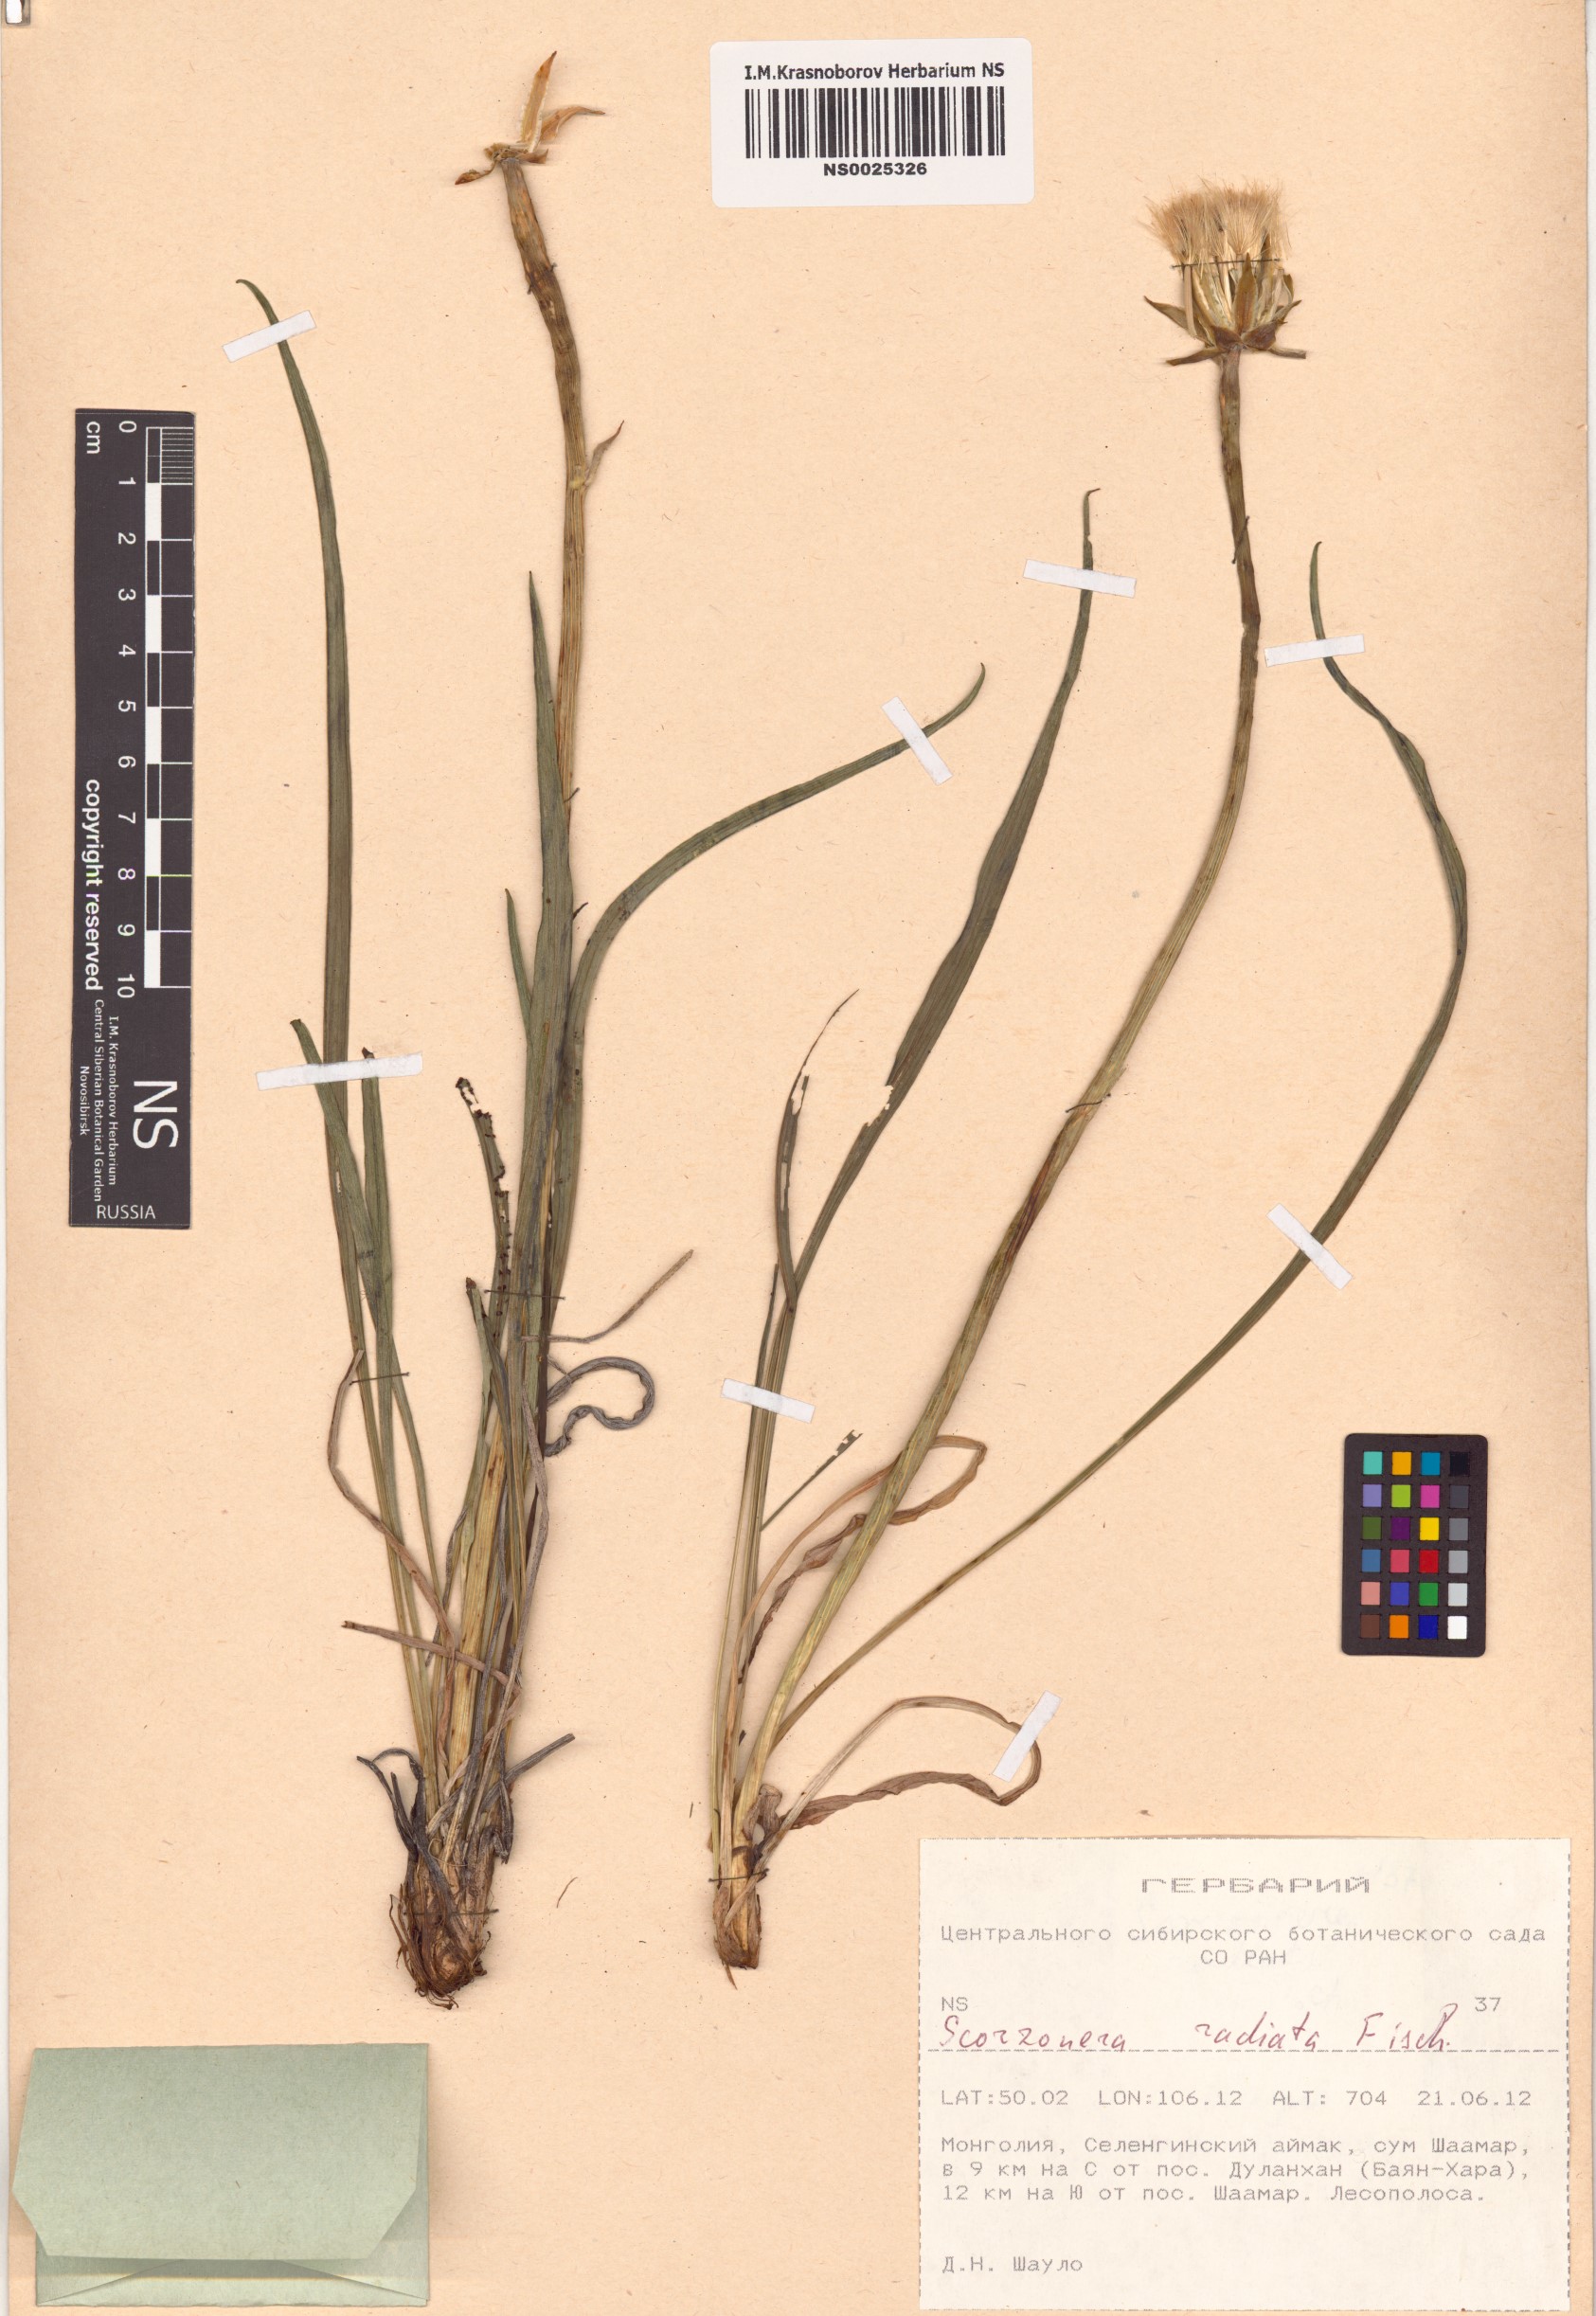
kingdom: Plantae
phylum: Tracheophyta
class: Magnoliopsida
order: Asterales
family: Asteraceae
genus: Scorzonera
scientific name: Scorzonera radiata
